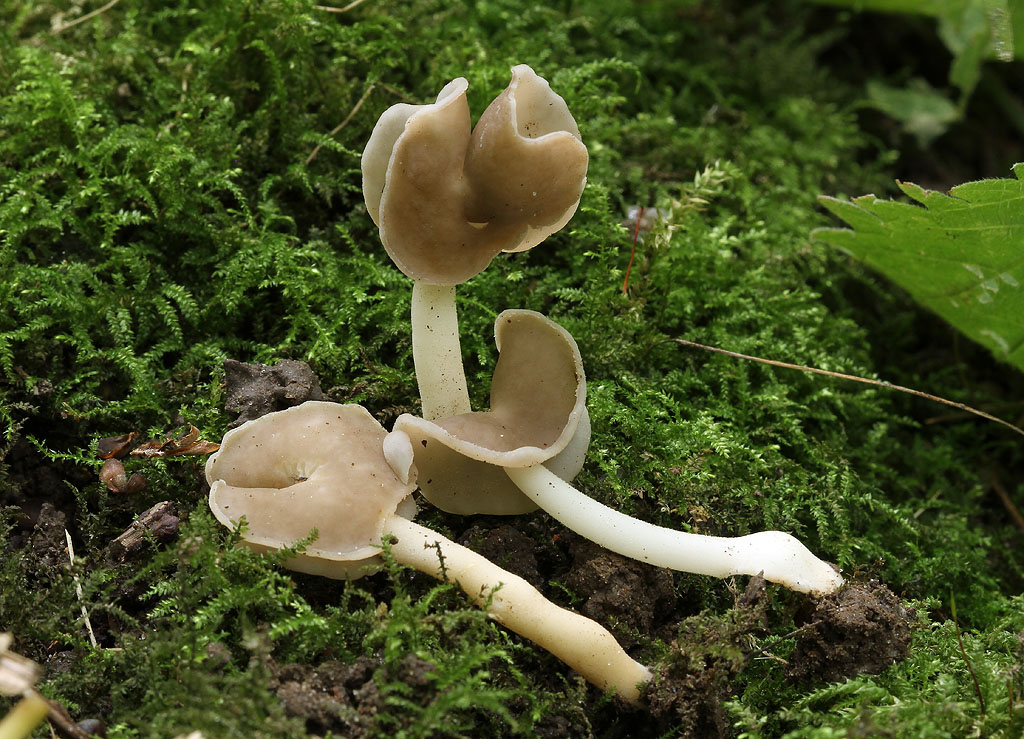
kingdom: Fungi
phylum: Ascomycota
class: Pezizomycetes
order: Pezizales
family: Helvellaceae
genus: Helvella
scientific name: Helvella levis
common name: bredsporet foldhat
